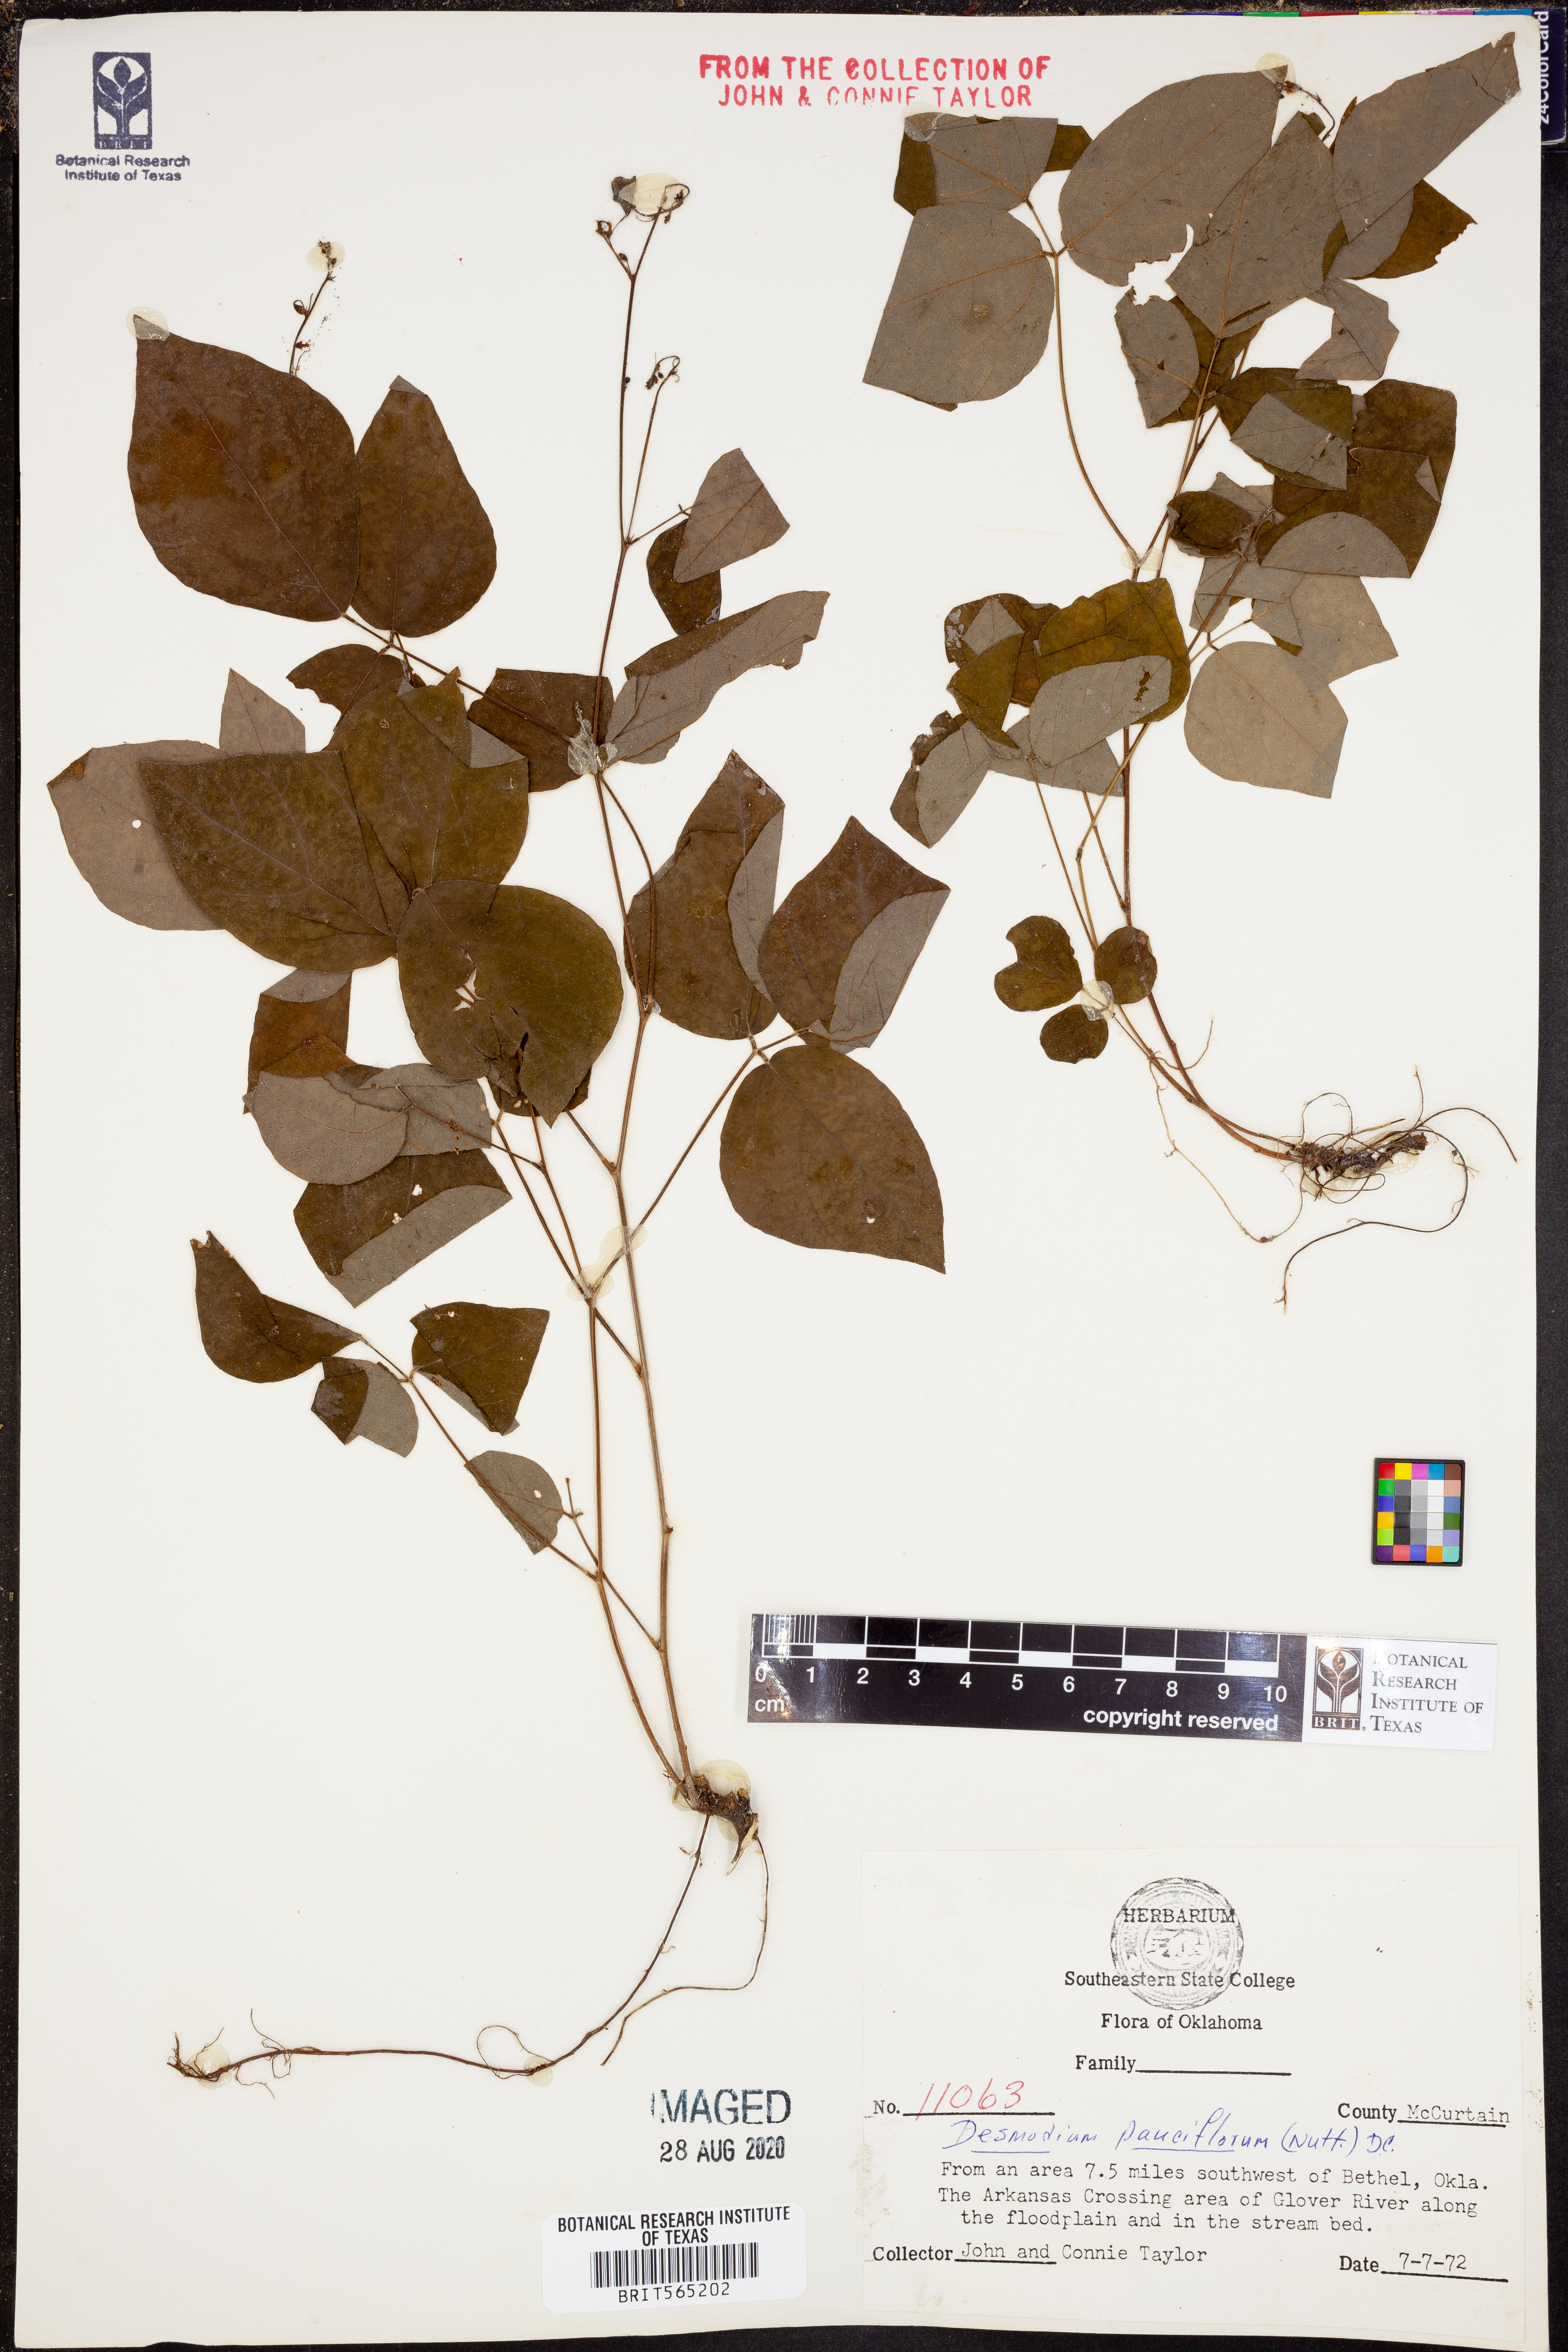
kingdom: Plantae
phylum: Tracheophyta
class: Magnoliopsida
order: Fabales
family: Fabaceae
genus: Hylodesmum
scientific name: Hylodesmum pauciflorum
